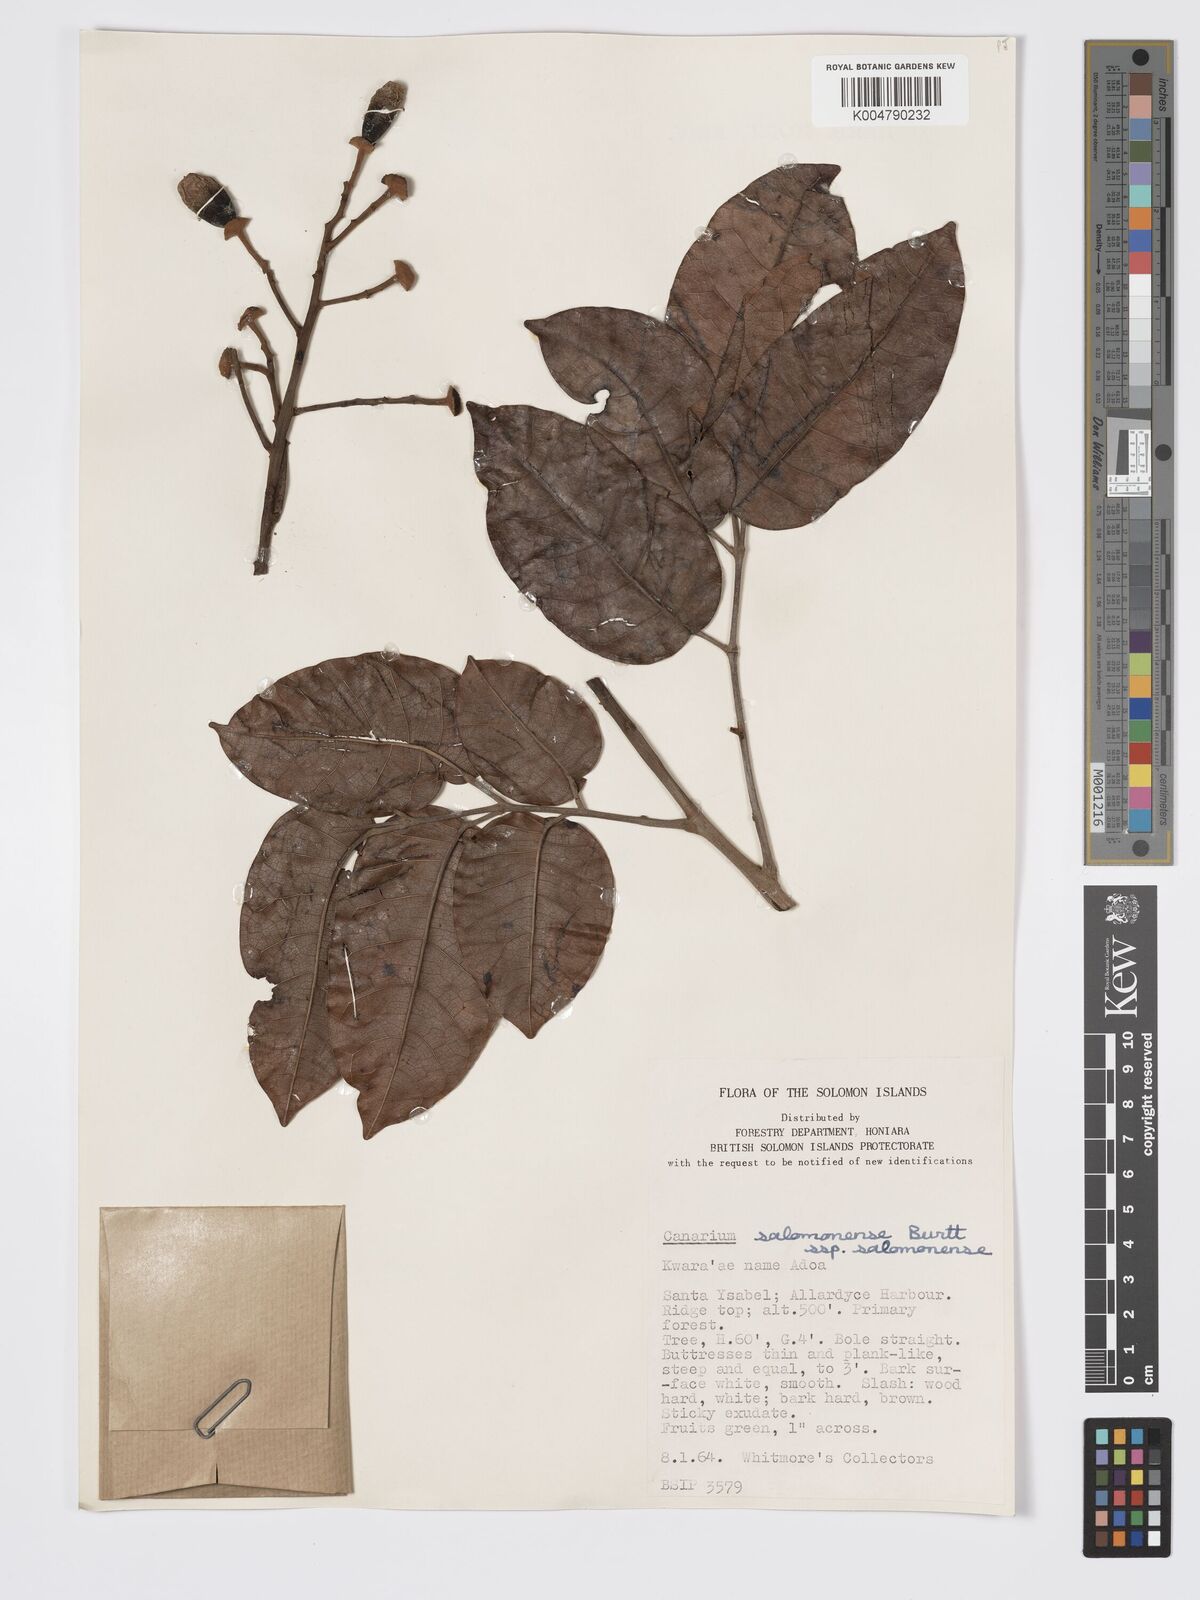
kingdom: Plantae
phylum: Tracheophyta
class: Magnoliopsida
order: Sapindales
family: Burseraceae
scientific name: Burseraceae
